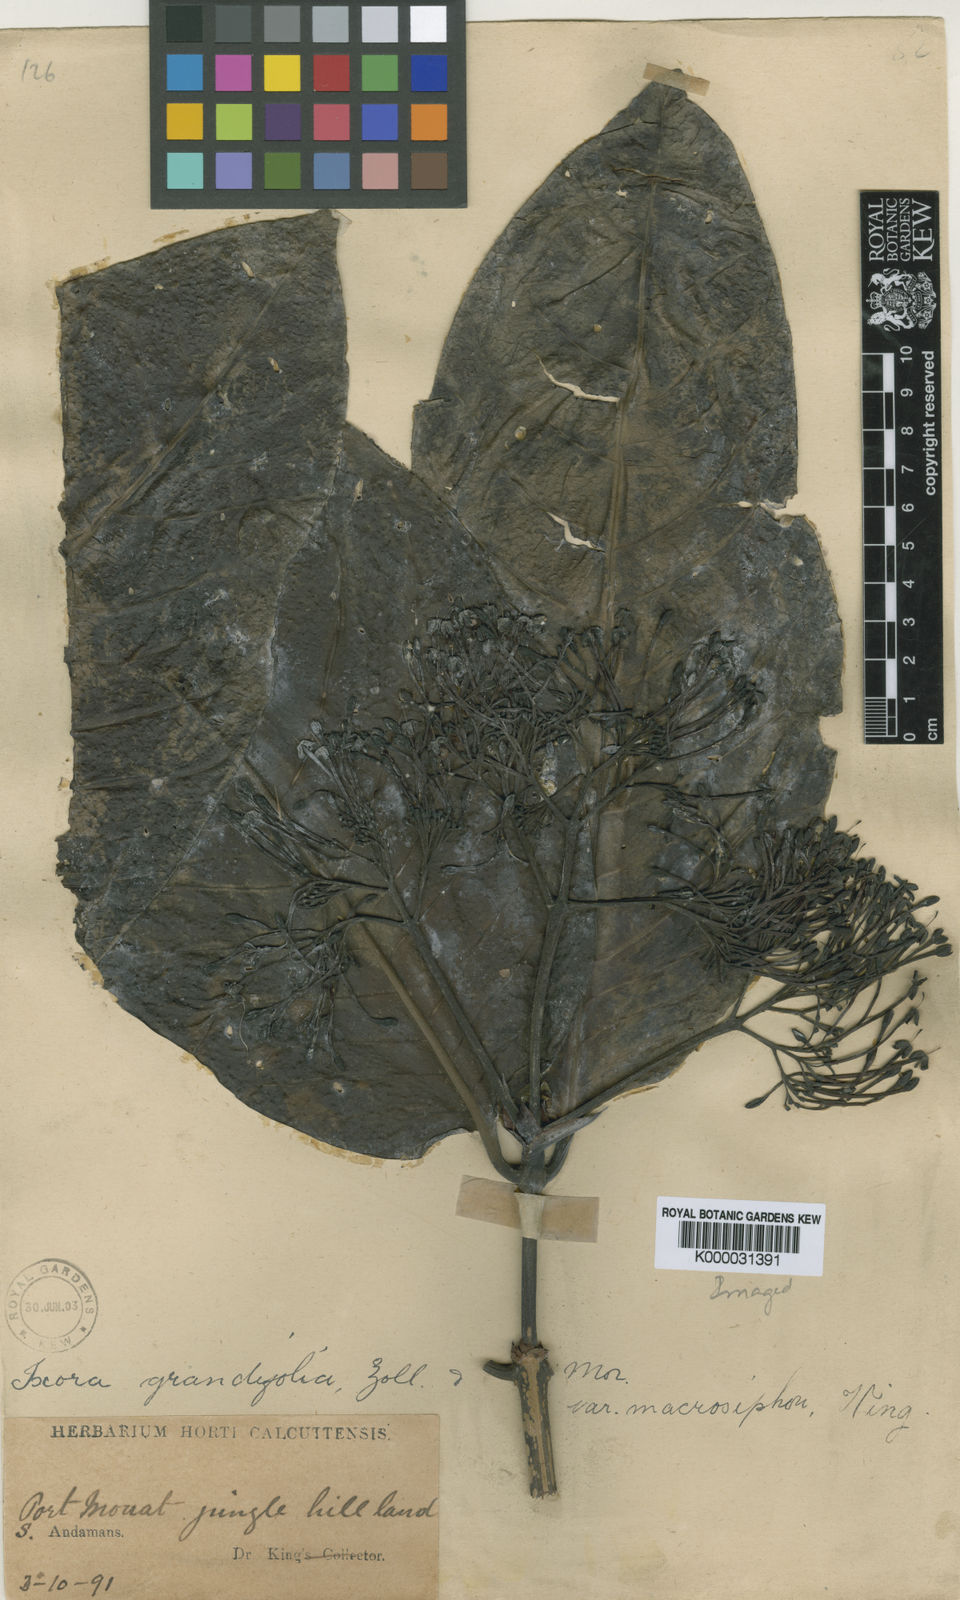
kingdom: Plantae
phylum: Tracheophyta
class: Magnoliopsida
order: Gentianales
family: Rubiaceae
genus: Ixora
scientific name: Ixora macrosiphon
